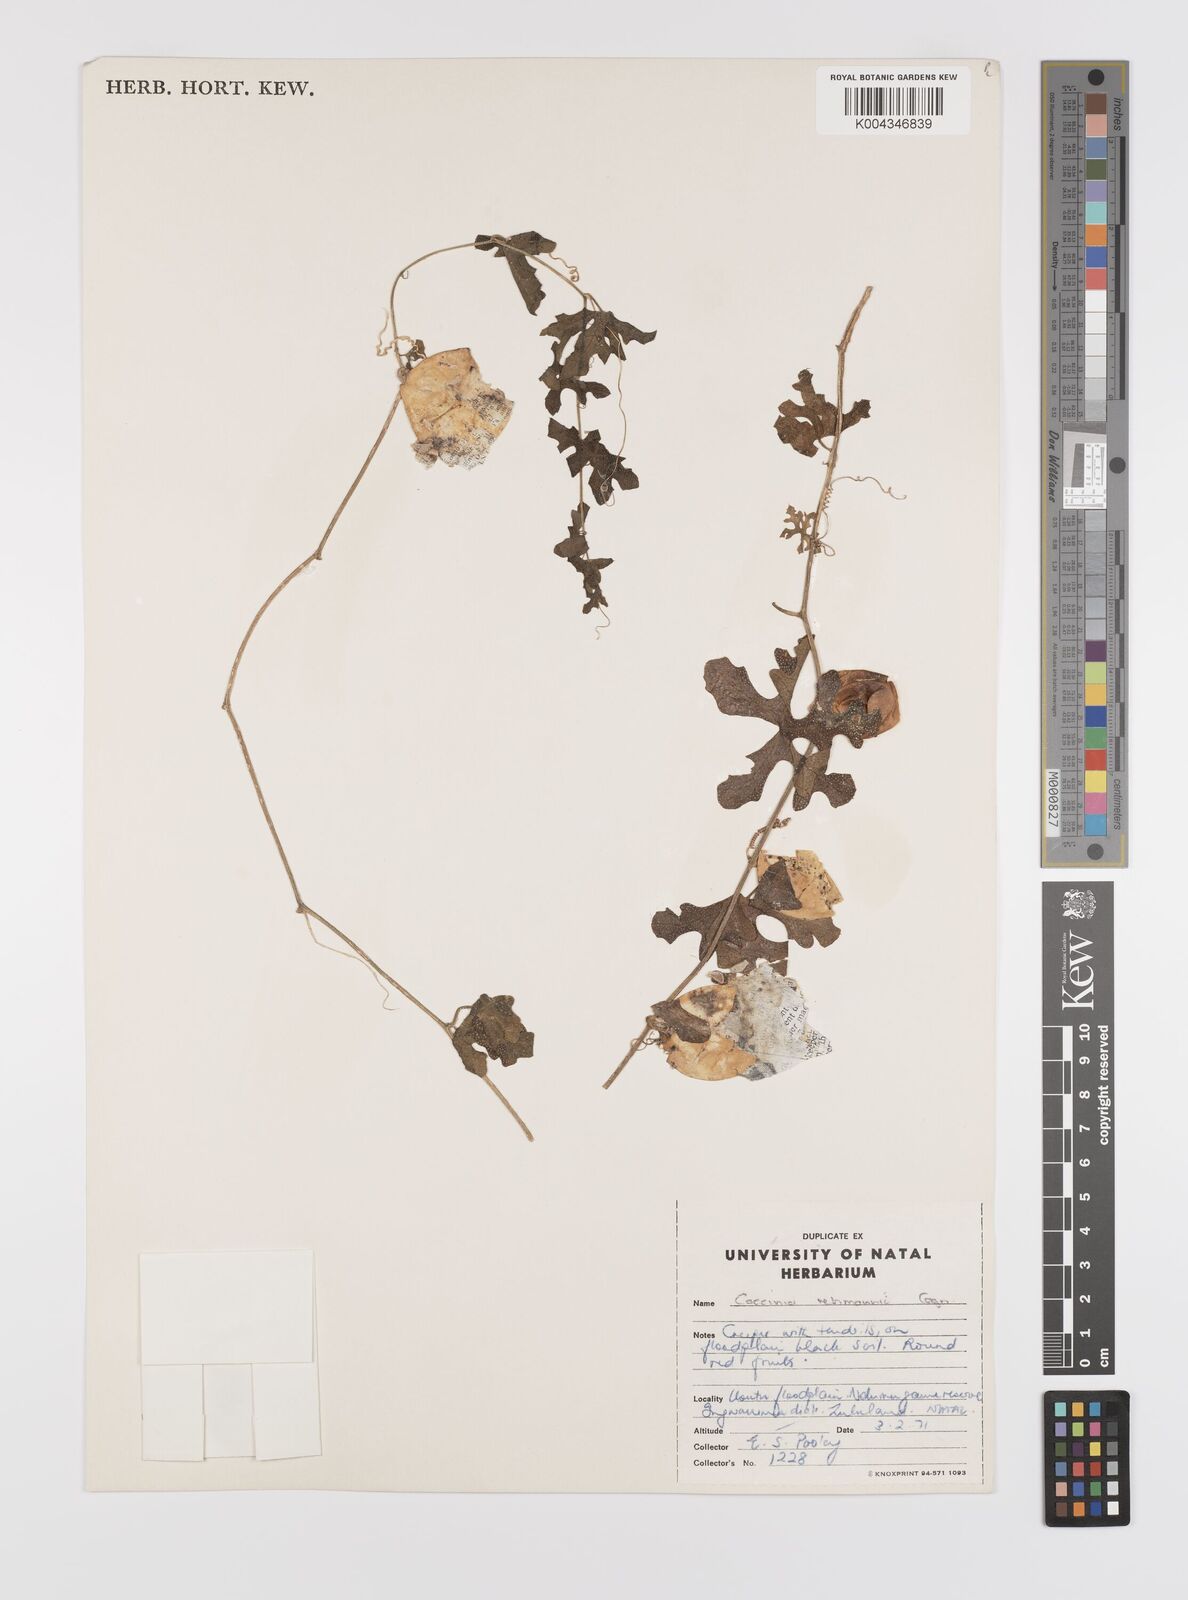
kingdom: Plantae
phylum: Tracheophyta
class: Magnoliopsida
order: Cucurbitales
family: Cucurbitaceae
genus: Coccinia
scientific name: Coccinia rehmannii
